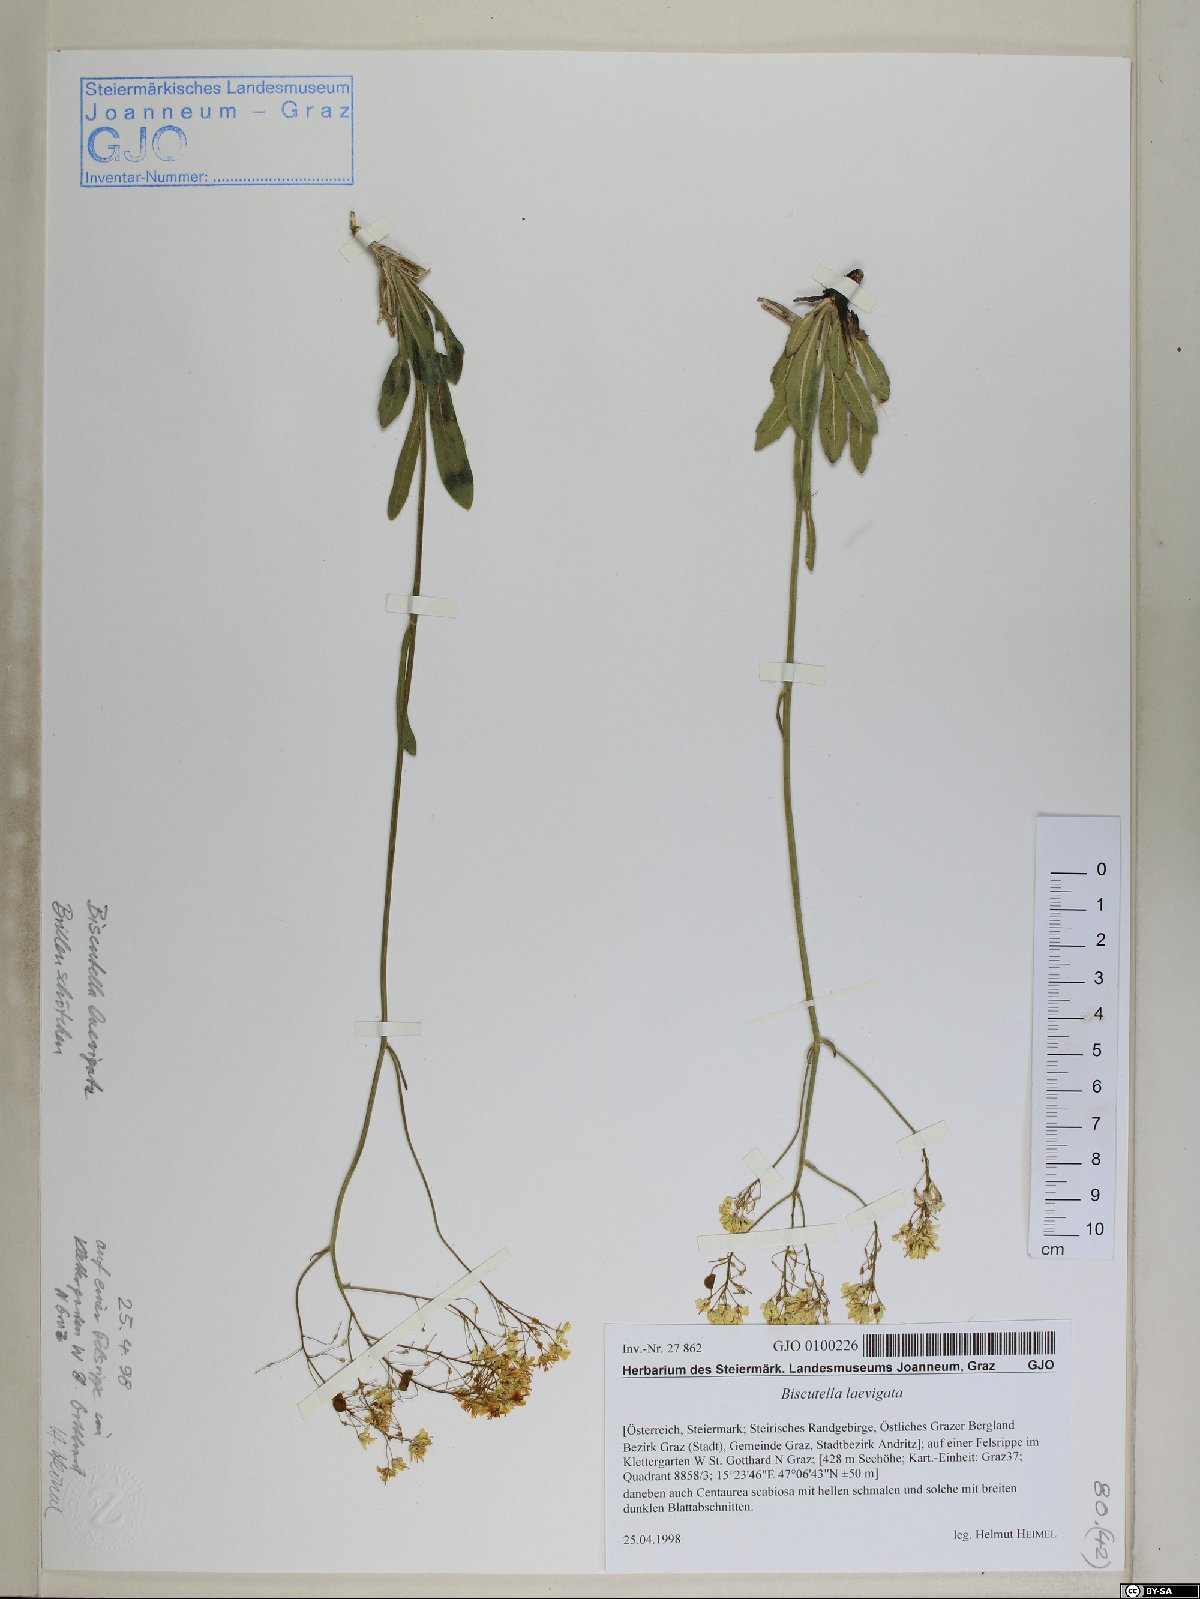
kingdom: Plantae
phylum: Tracheophyta
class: Magnoliopsida
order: Brassicales
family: Brassicaceae
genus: Biscutella
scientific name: Biscutella laevigata
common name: Buckler mustard
